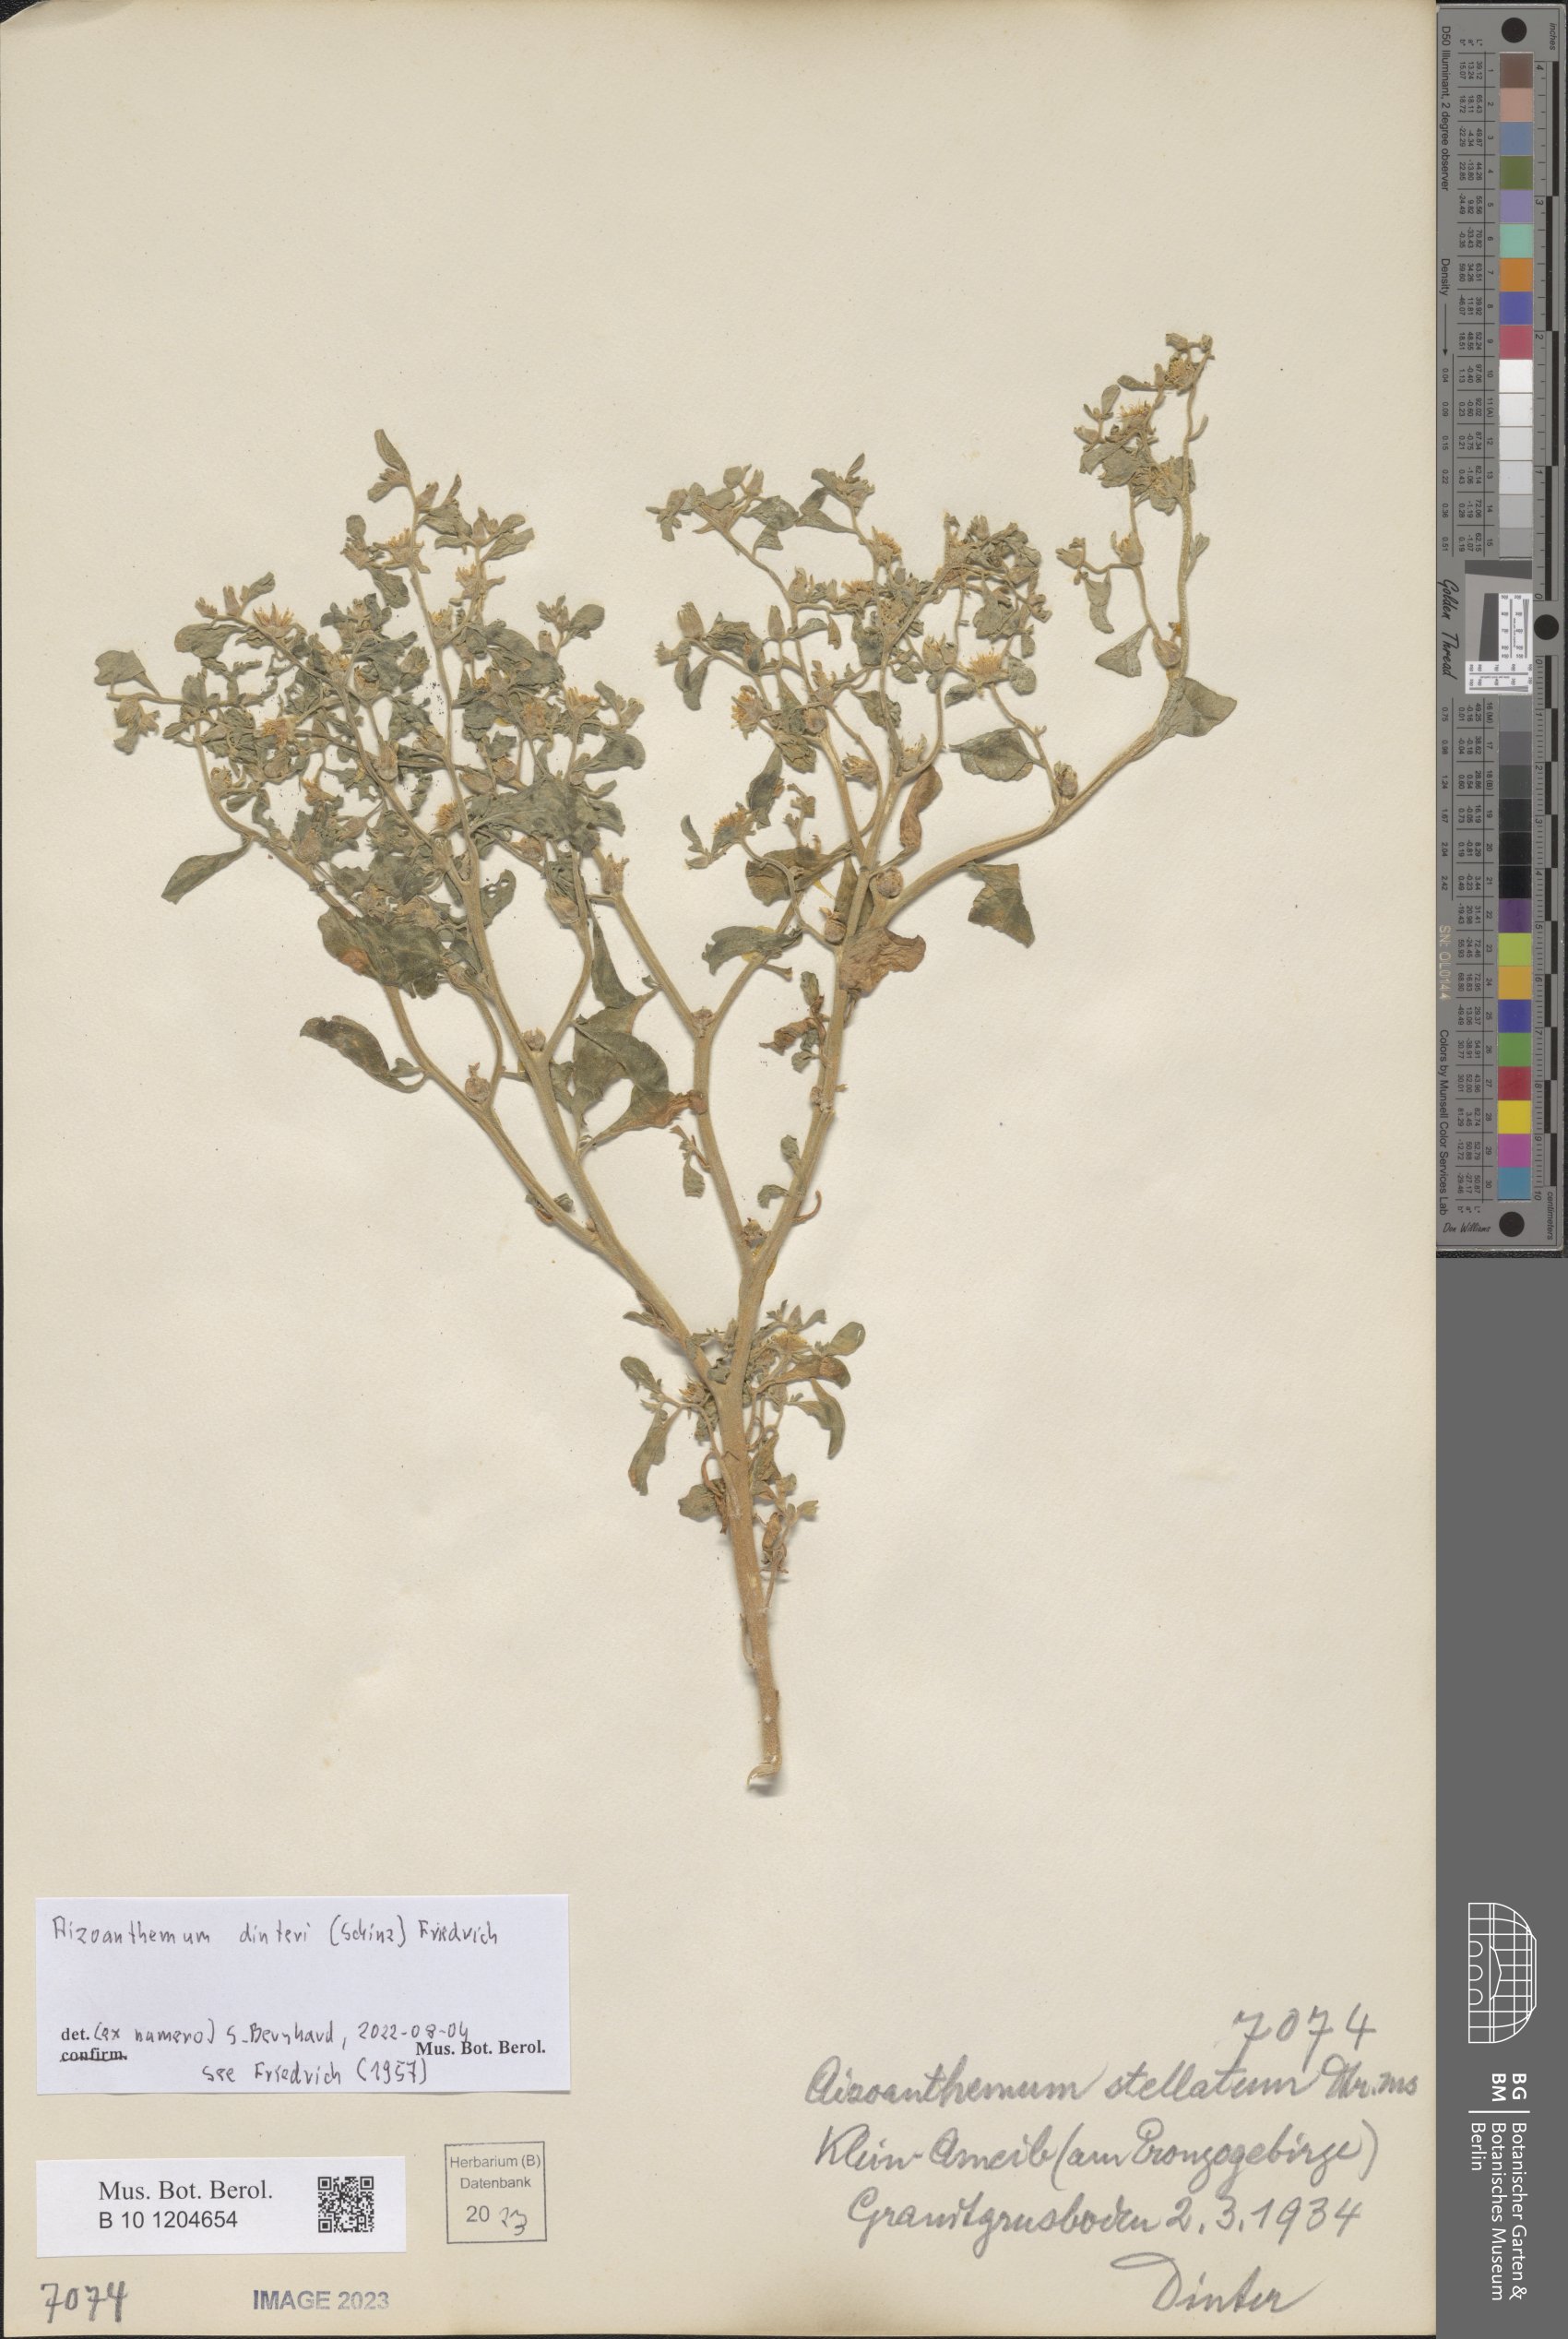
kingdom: Plantae
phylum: Tracheophyta
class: Magnoliopsida
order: Caryophyllales
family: Aizoaceae
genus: Aizoanthemum
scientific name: Aizoanthemum dinteri
